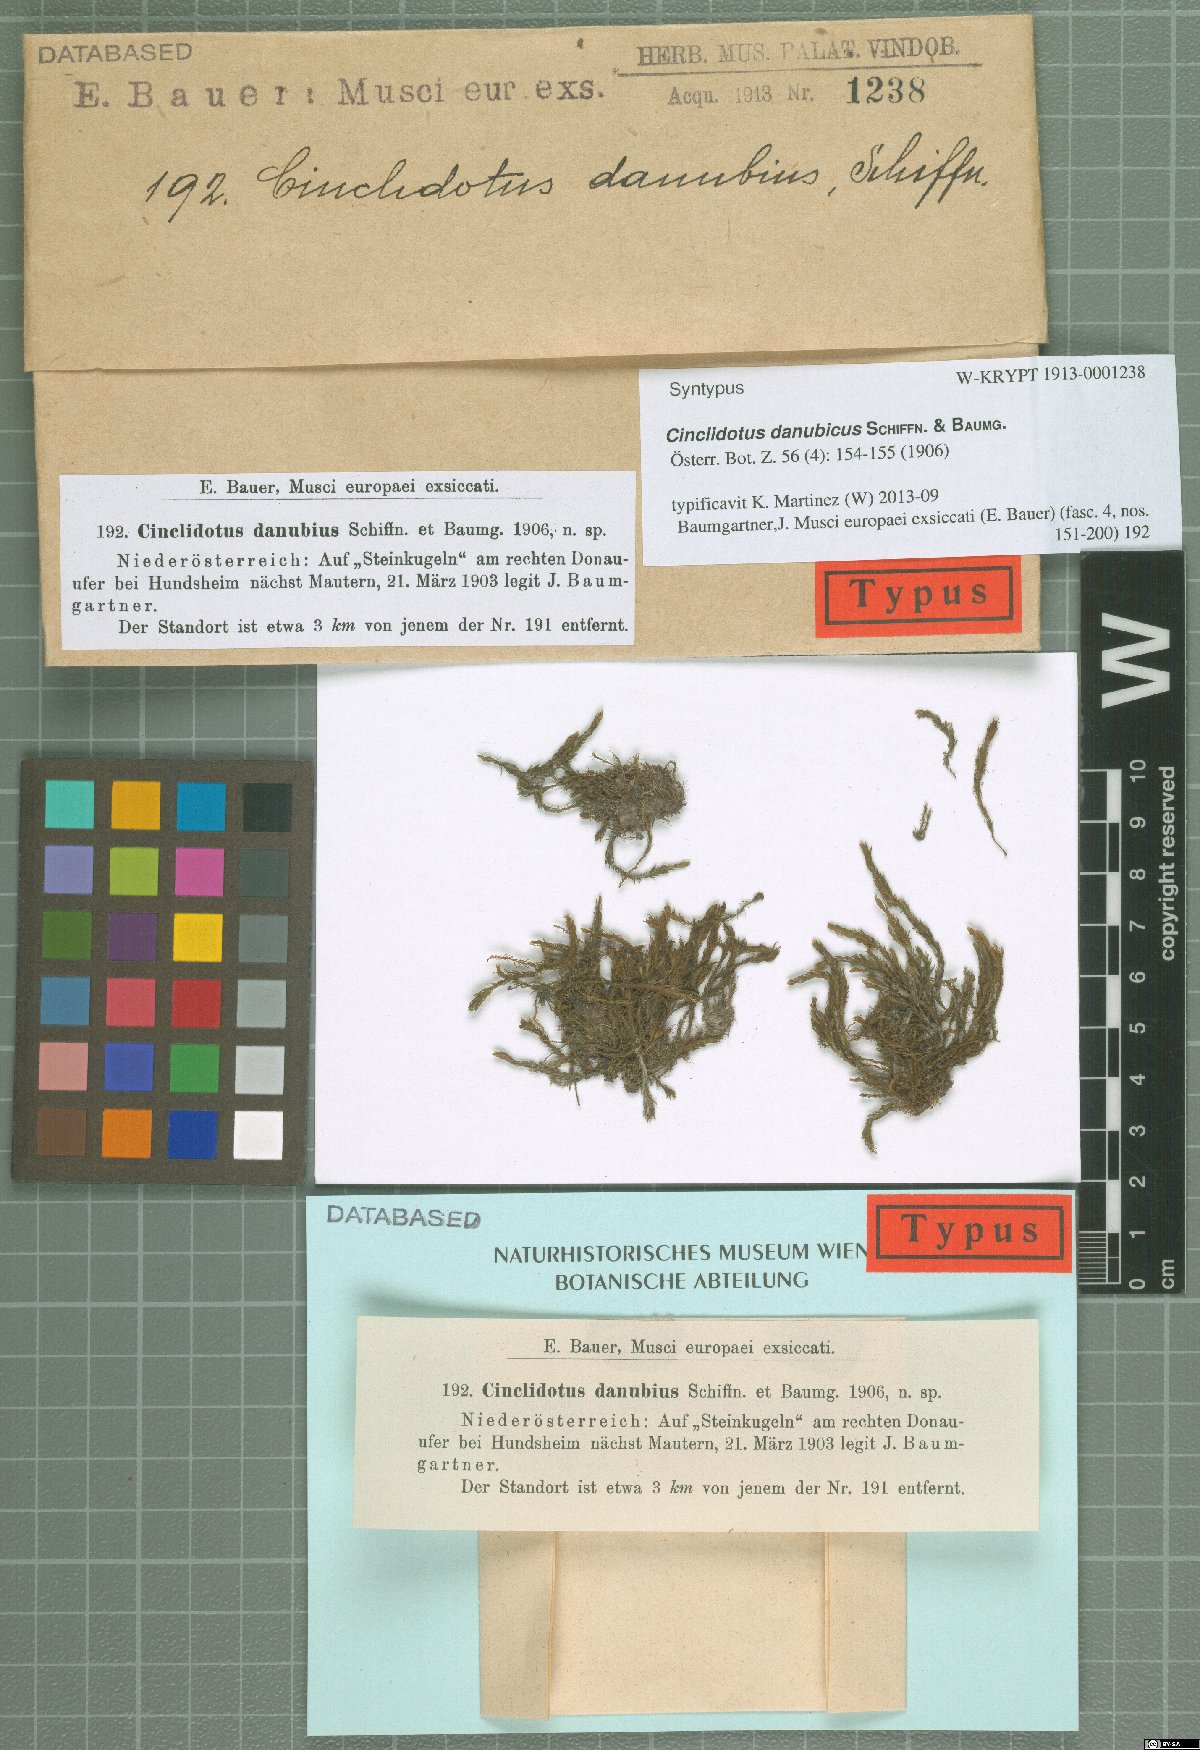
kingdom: Plantae
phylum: Bryophyta
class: Bryopsida
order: Pottiales
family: Pottiaceae
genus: Cinclidotus
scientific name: Cinclidotus danubicus
